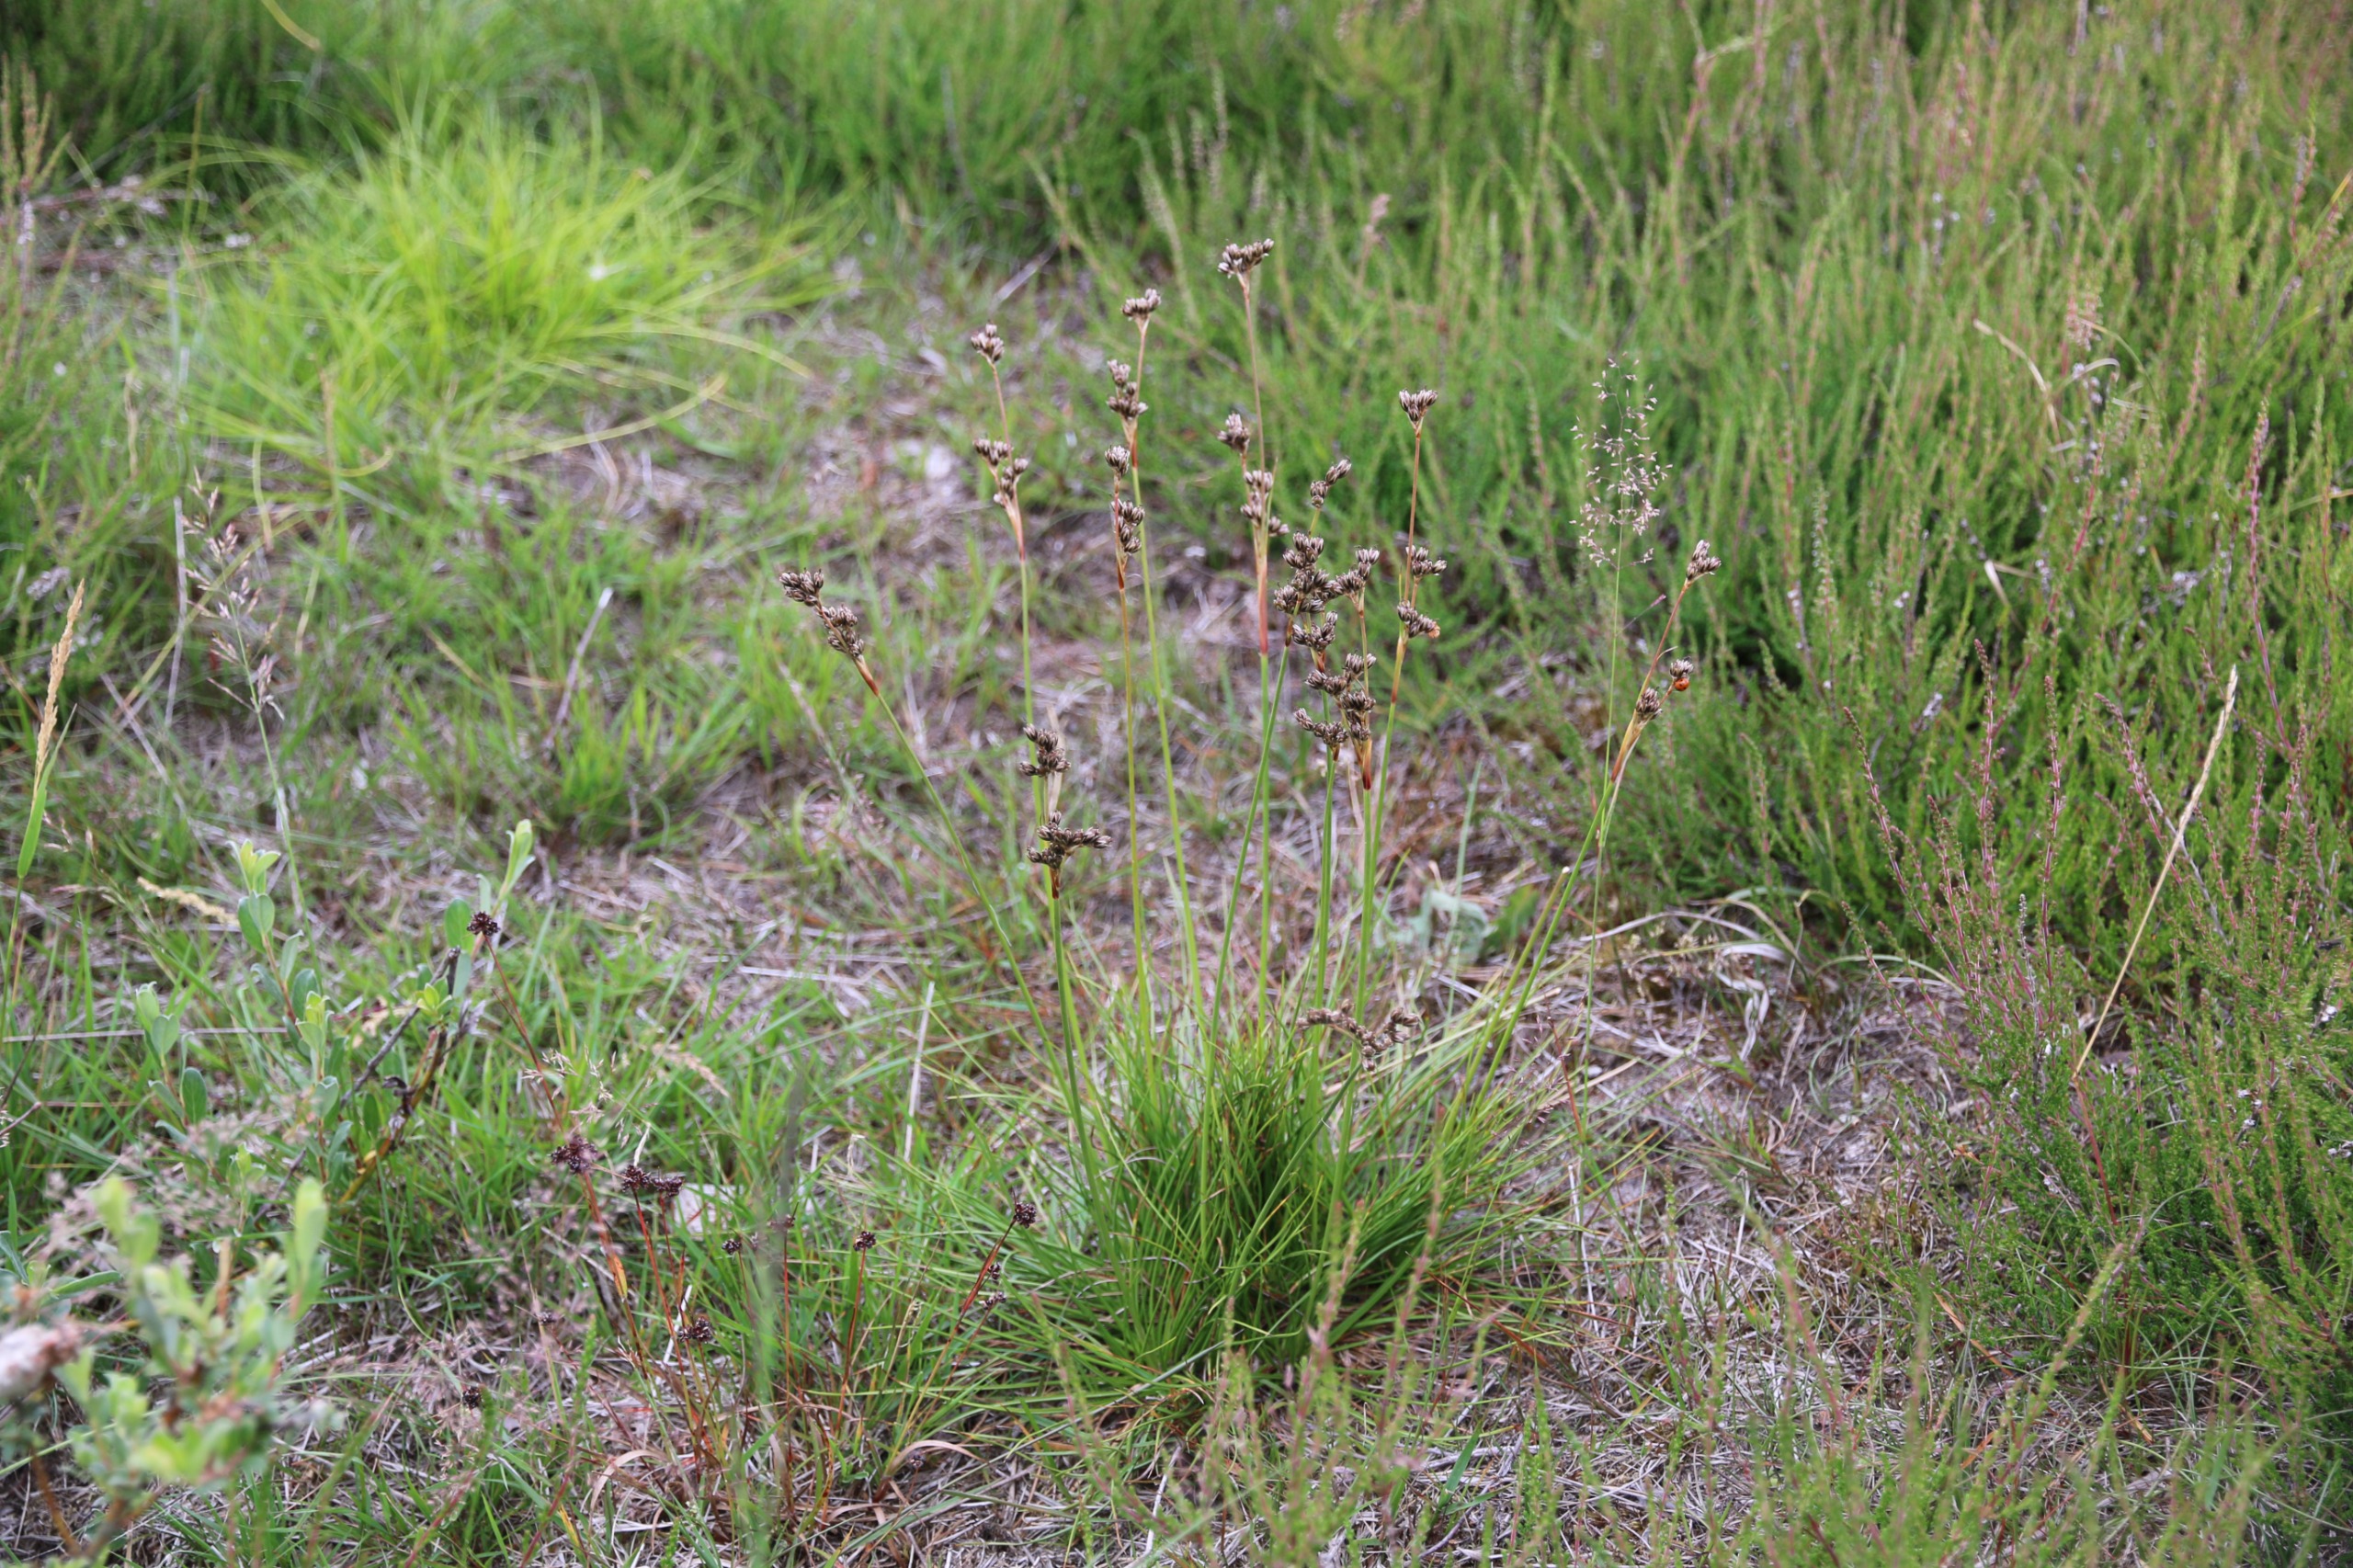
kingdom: Plantae
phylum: Tracheophyta
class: Liliopsida
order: Poales
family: Juncaceae
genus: Juncus
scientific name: Juncus squarrosus
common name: Børste-siv
